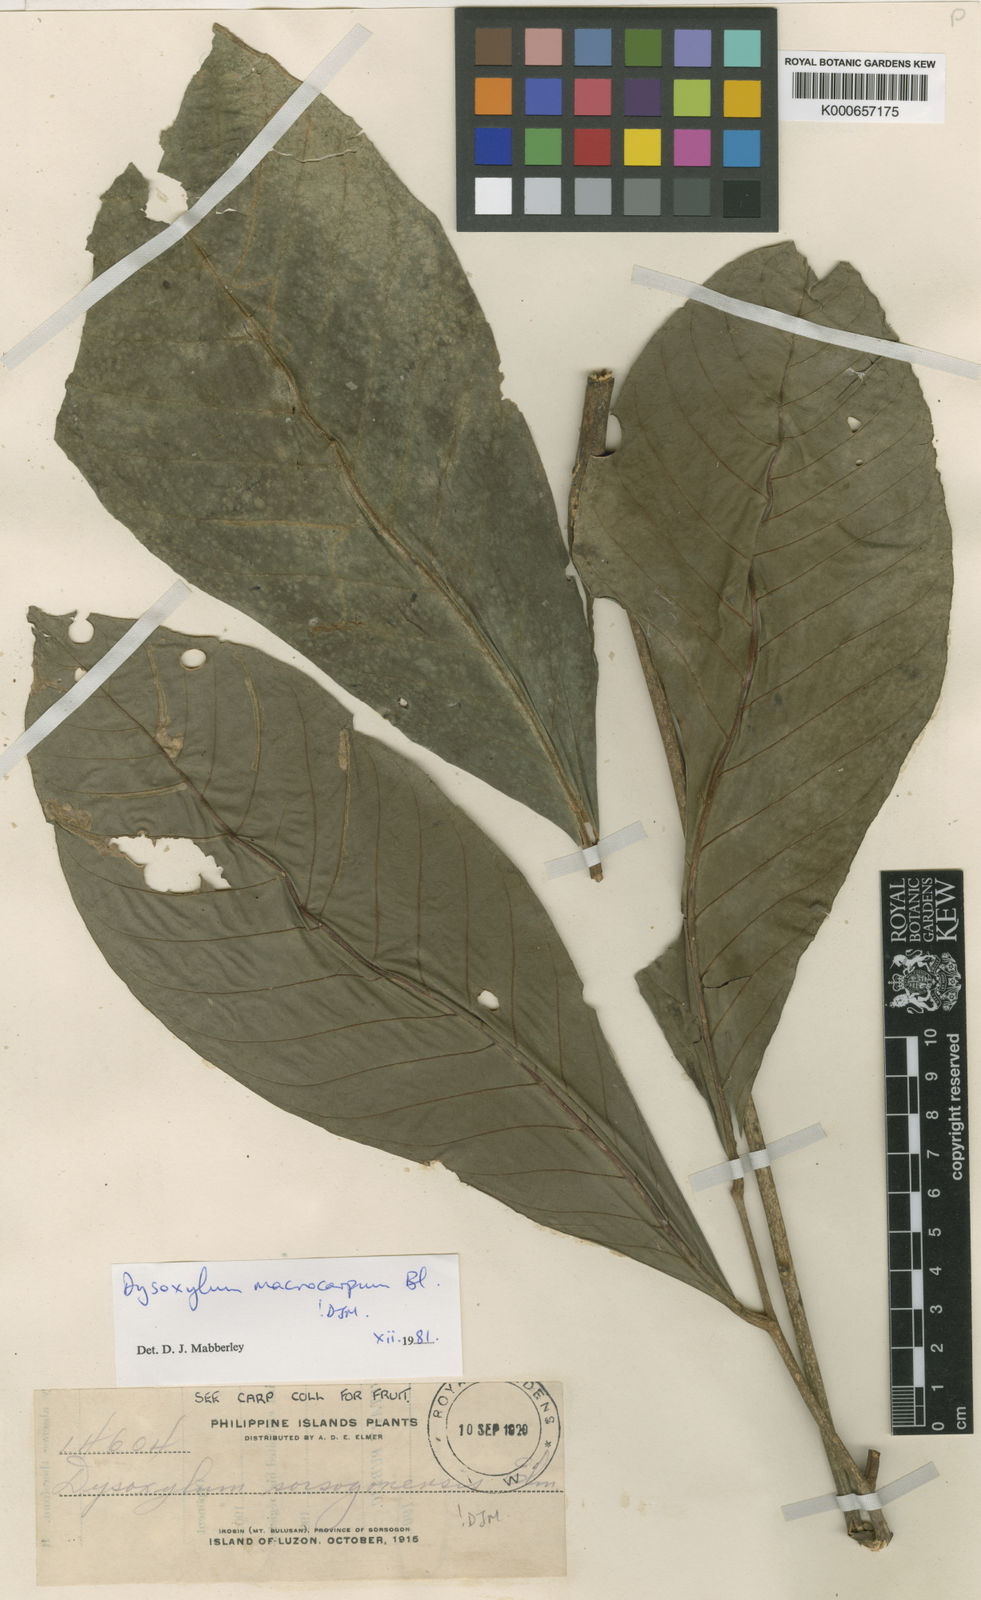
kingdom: Plantae
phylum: Tracheophyta
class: Magnoliopsida
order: Sapindales
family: Meliaceae
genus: Dysoxylum
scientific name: Dysoxylum macrocarpum
